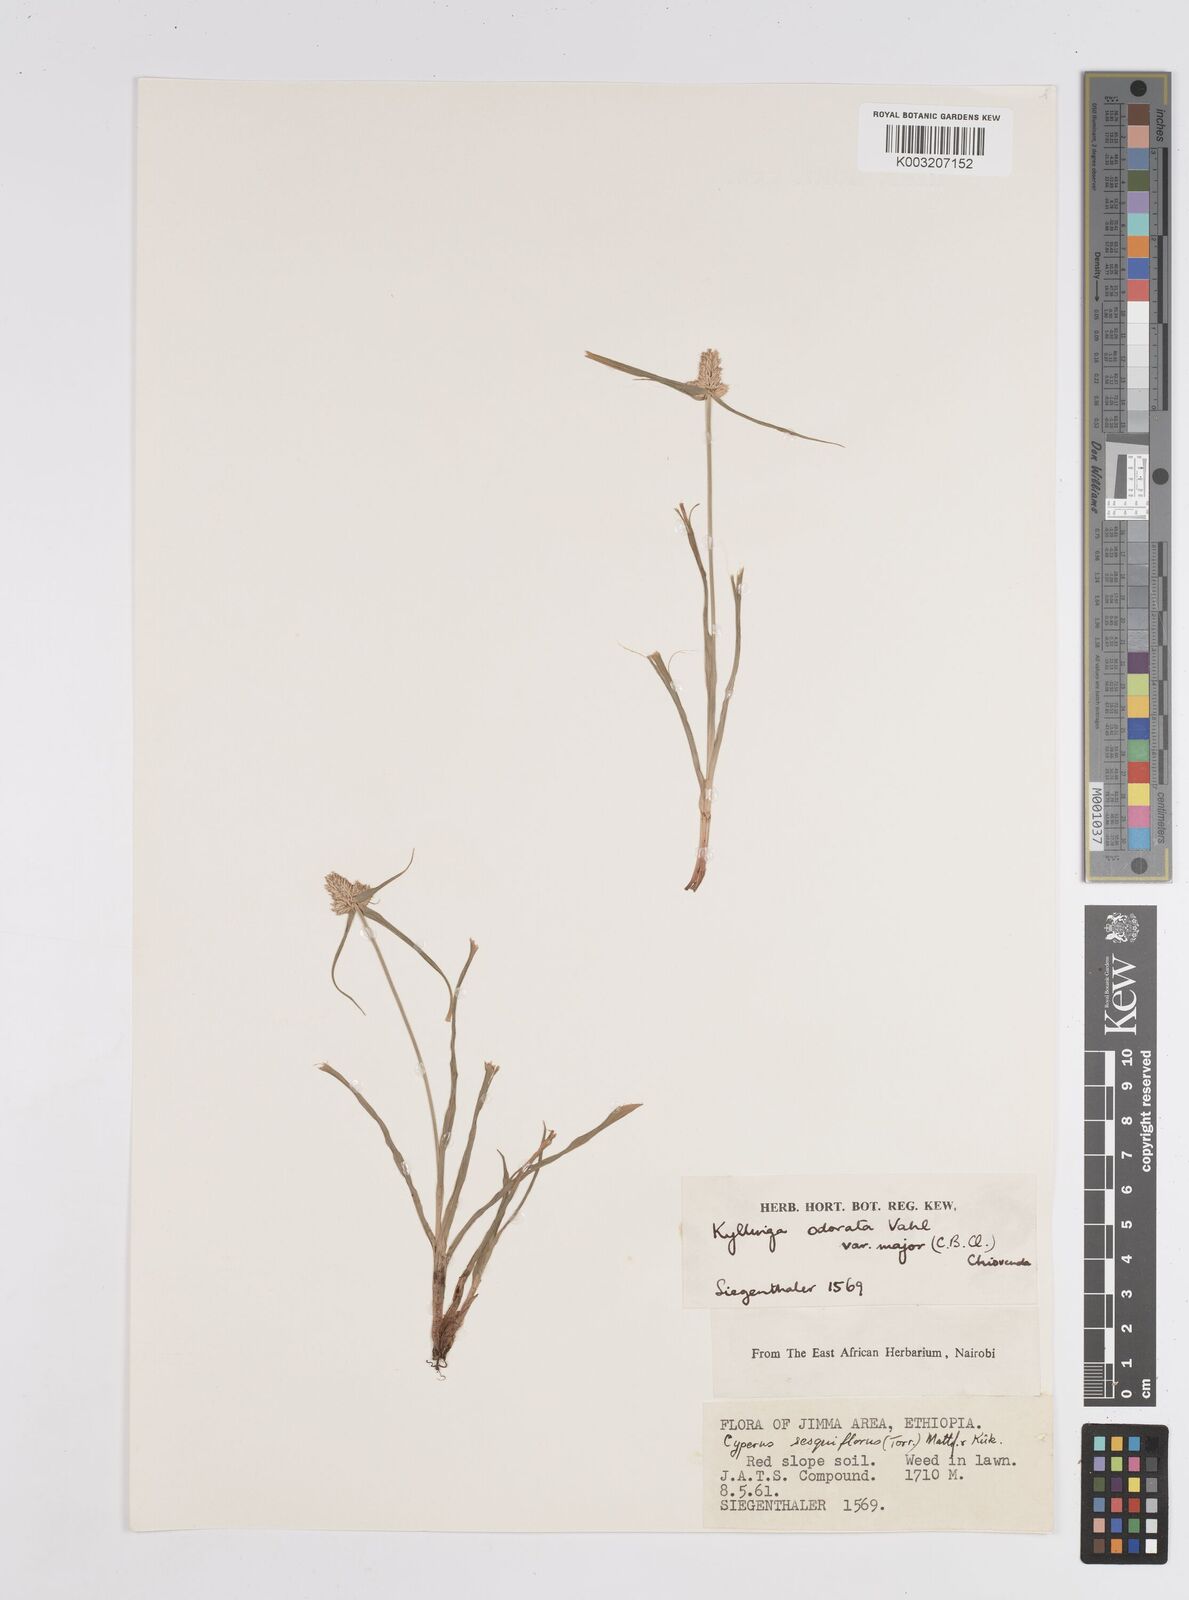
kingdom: Plantae
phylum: Tracheophyta
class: Liliopsida
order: Poales
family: Cyperaceae
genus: Cyperus
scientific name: Cyperus
